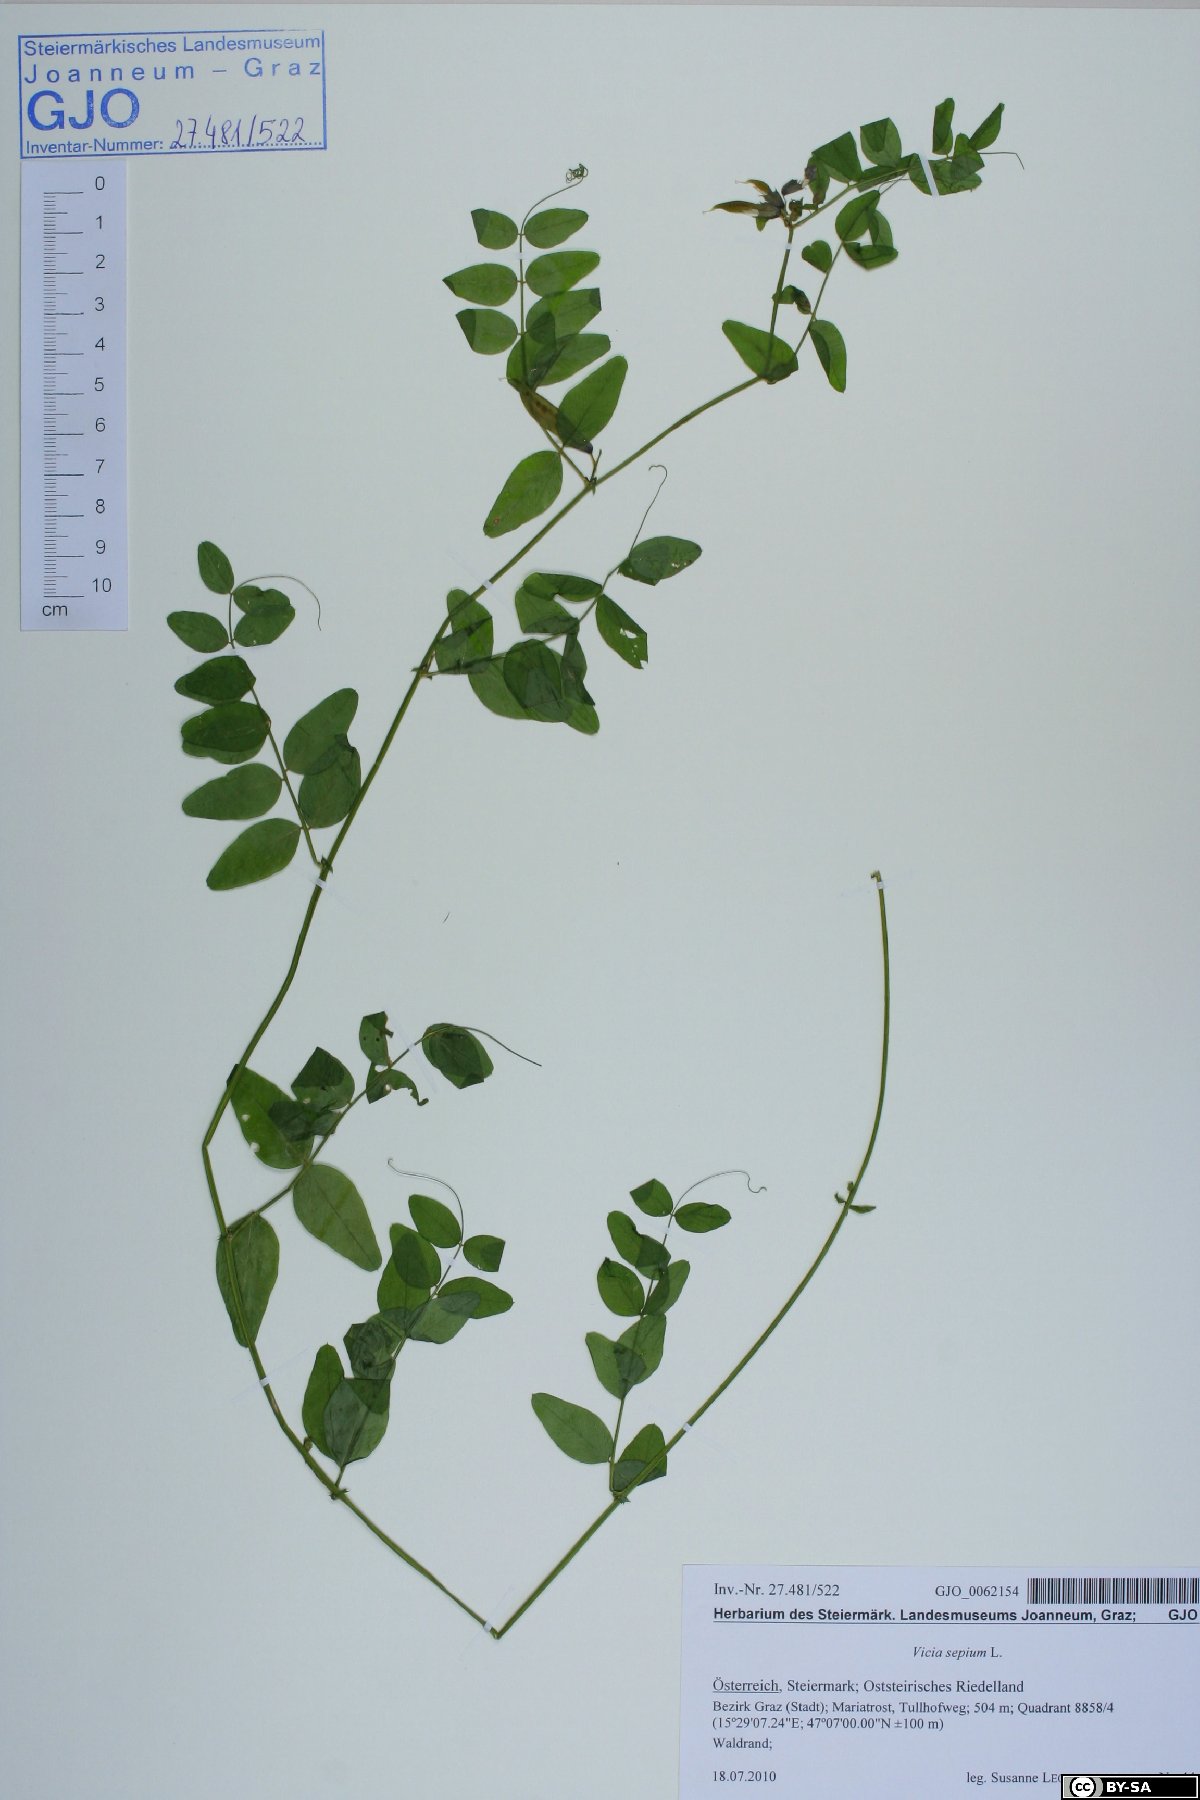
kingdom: Plantae
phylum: Tracheophyta
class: Magnoliopsida
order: Fabales
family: Fabaceae
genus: Vicia
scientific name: Vicia sepium
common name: Bush vetch
